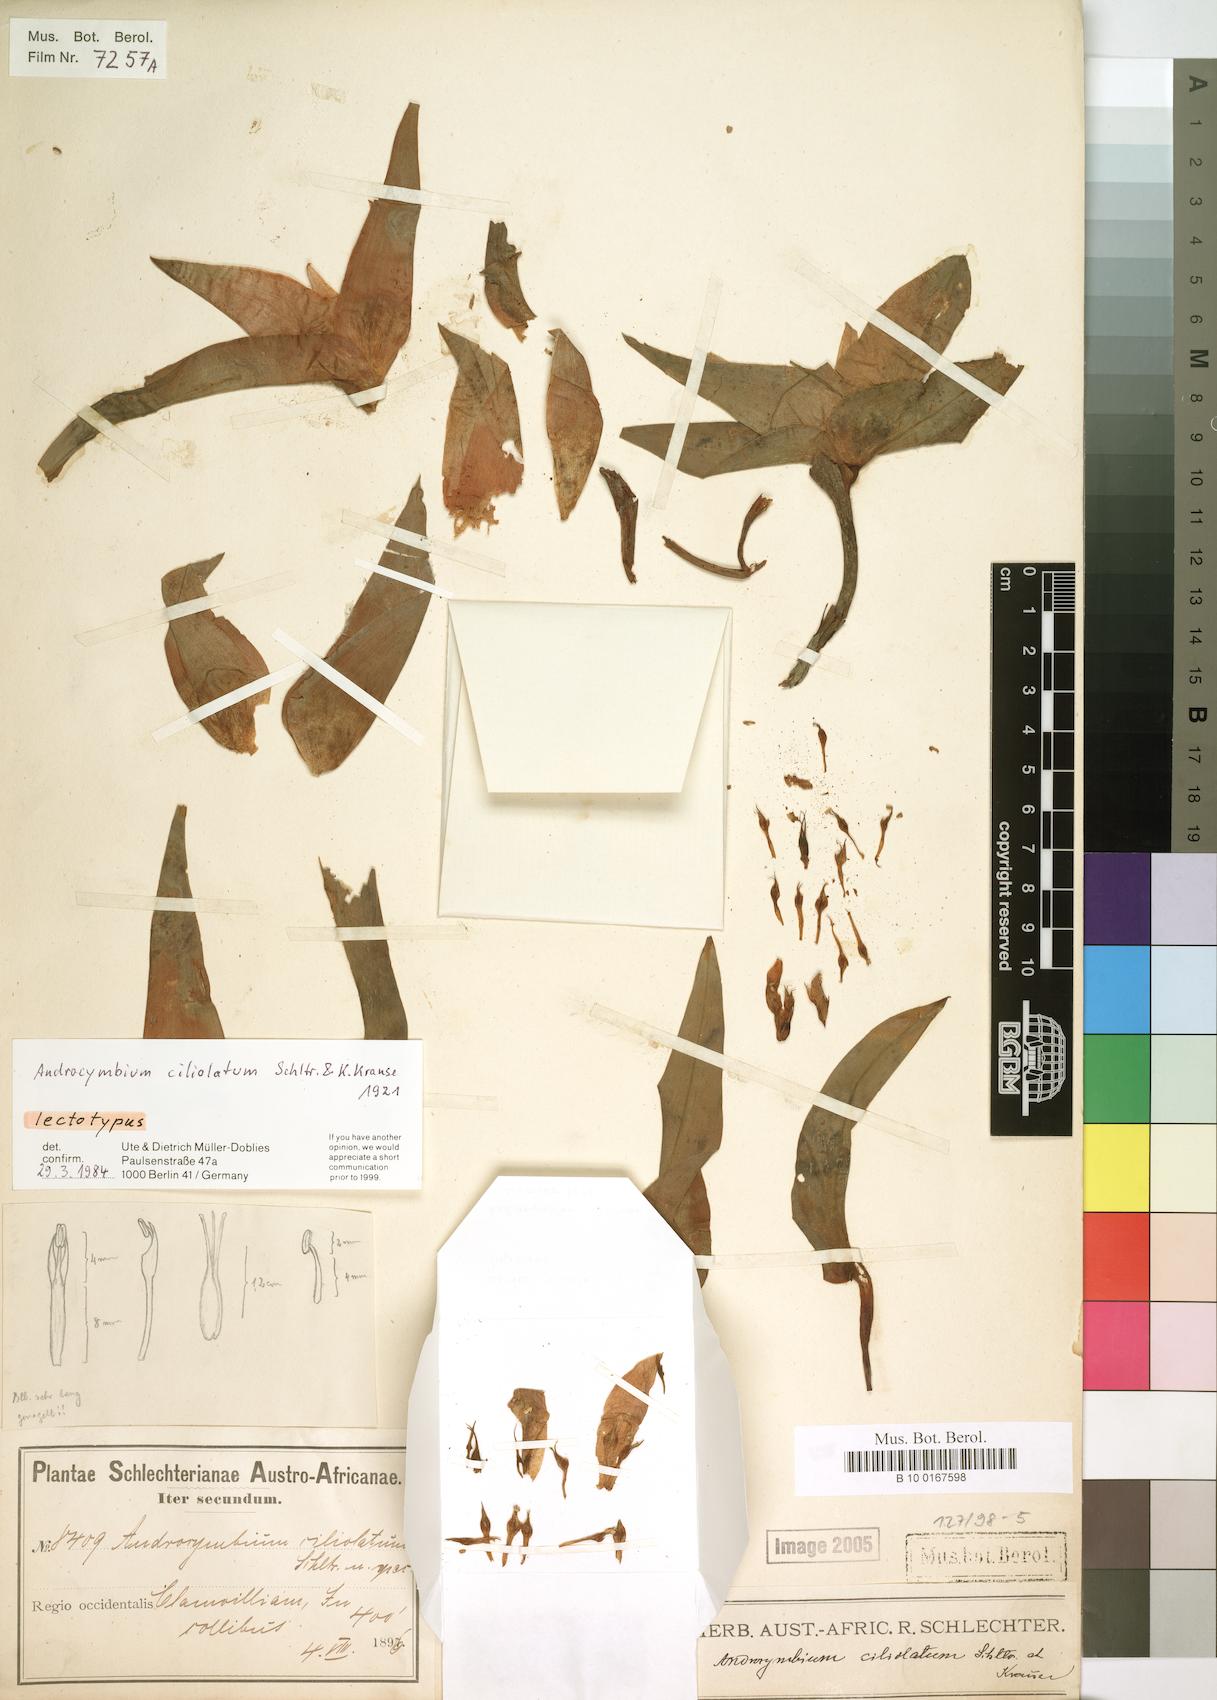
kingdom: Plantae
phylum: Tracheophyta
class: Liliopsida
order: Liliales
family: Colchicaceae
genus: Colchicum
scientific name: Colchicum capense
